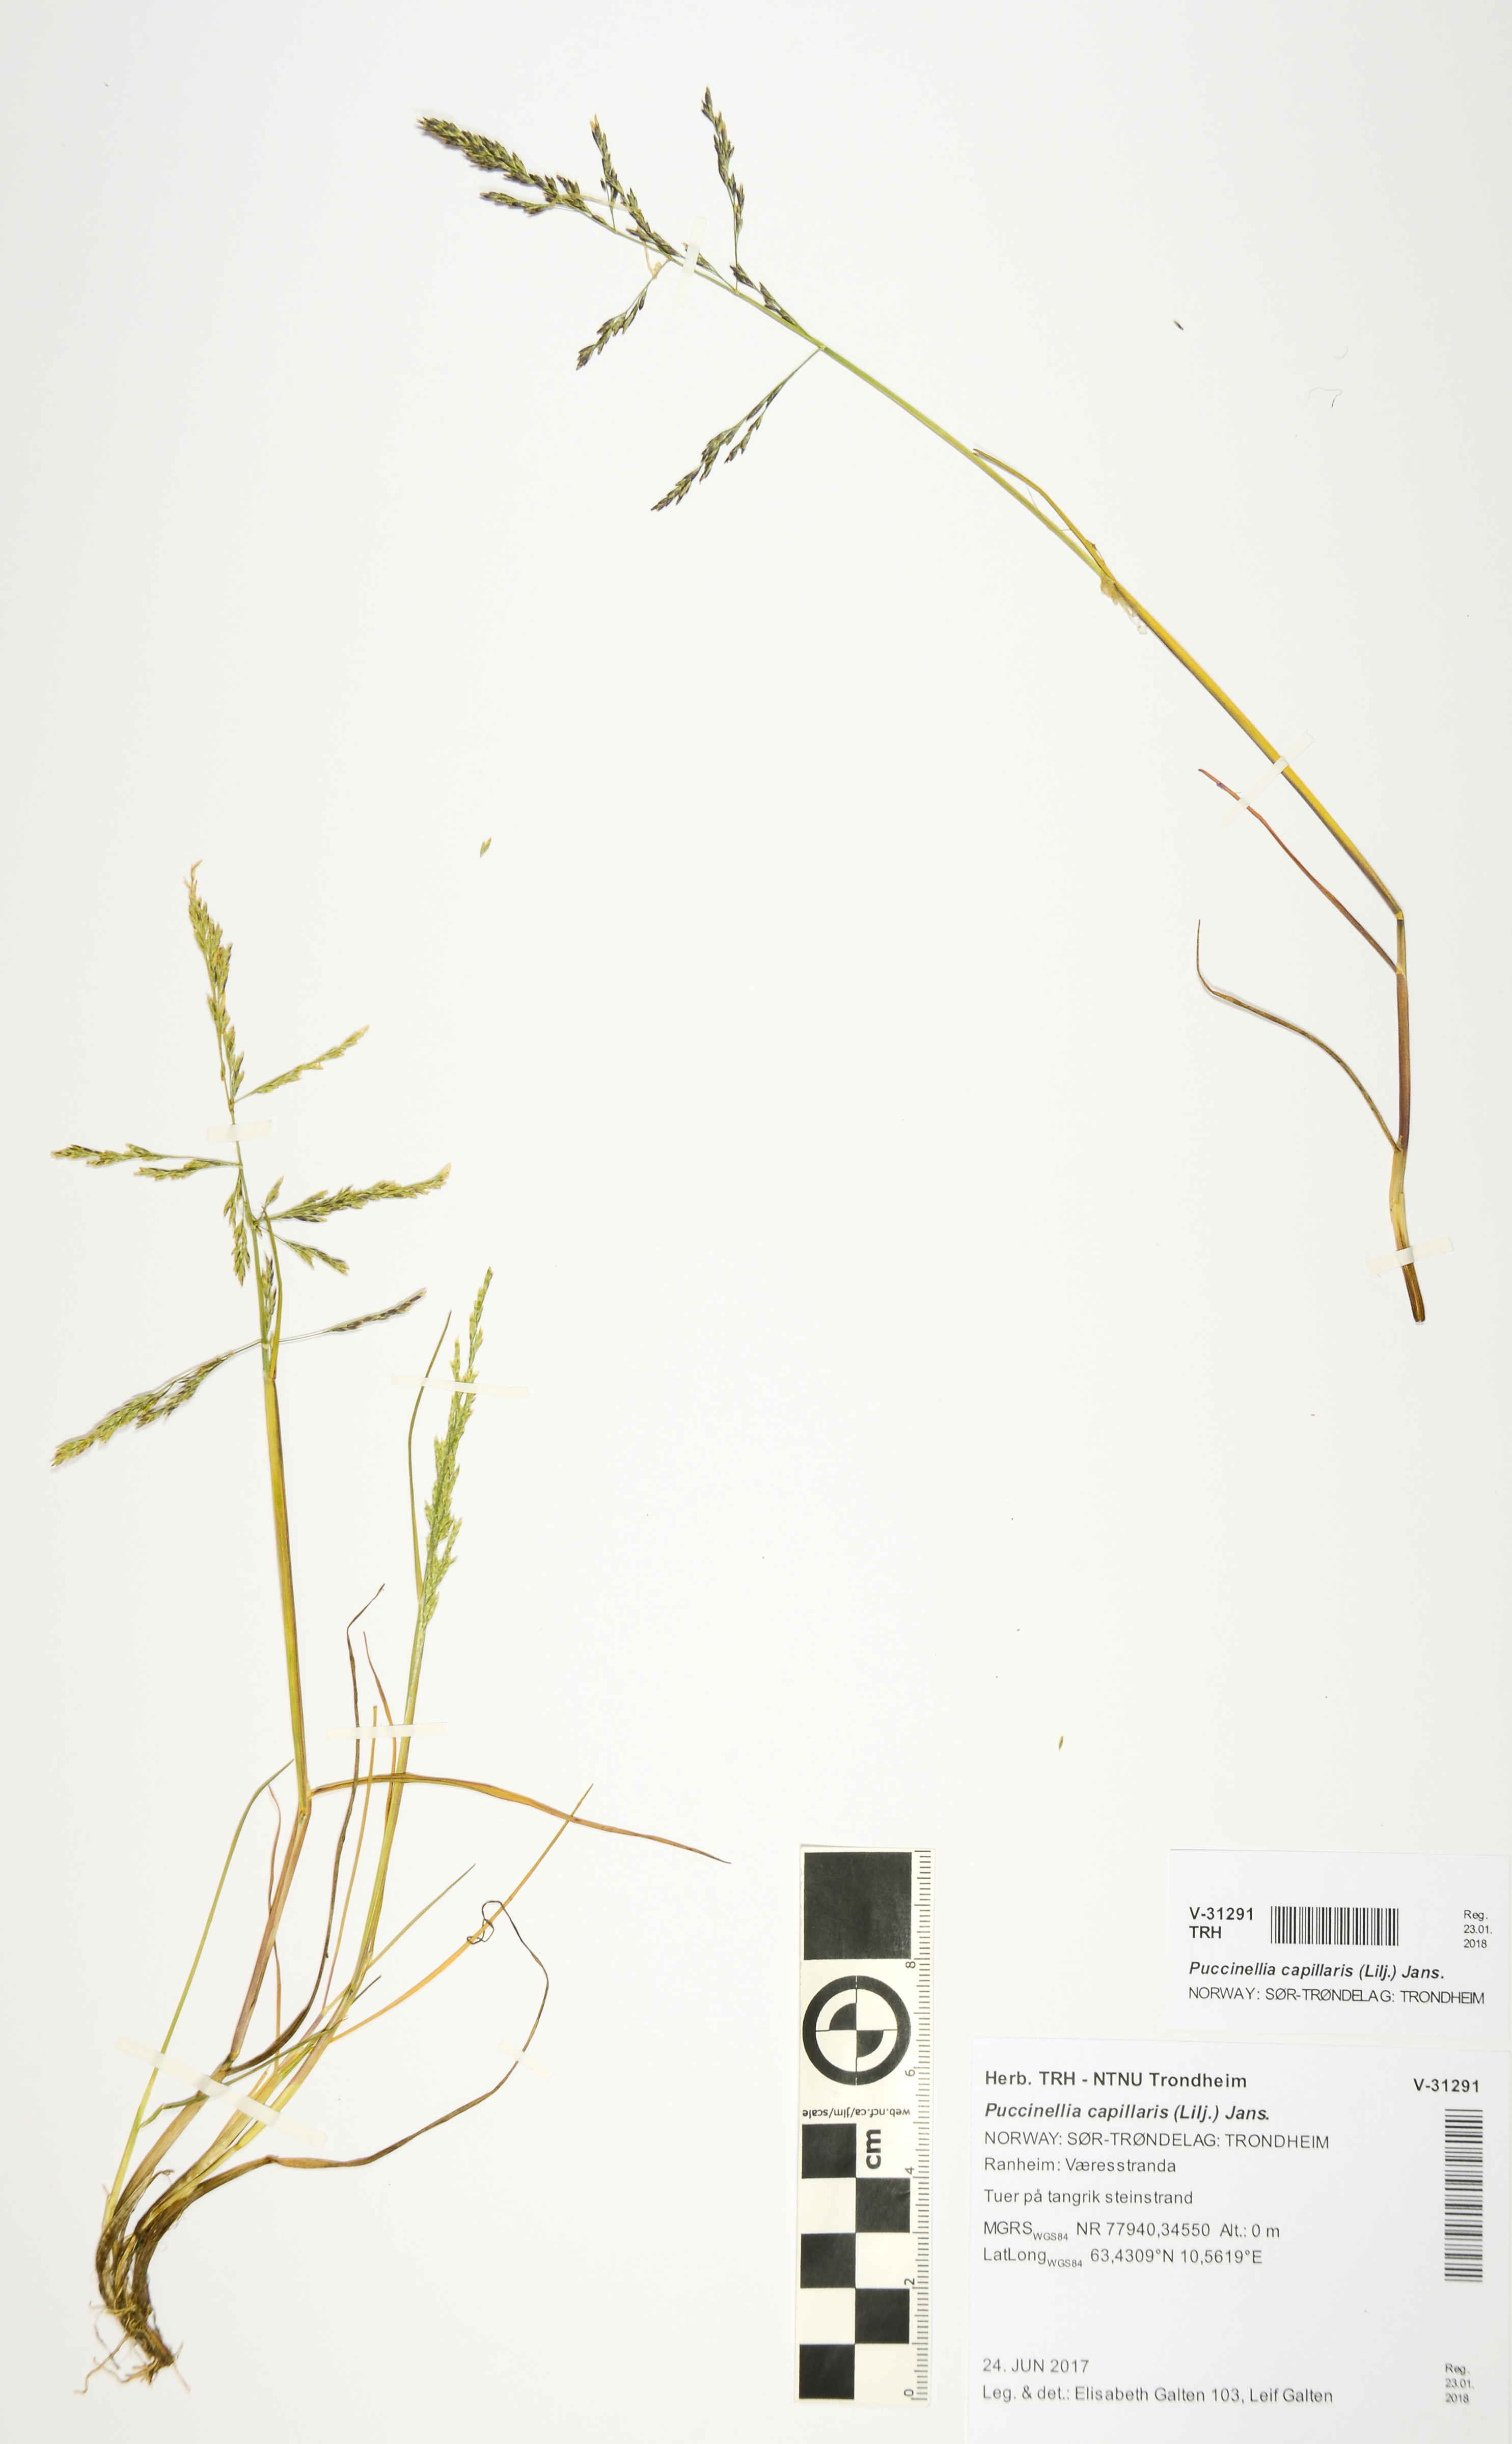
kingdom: Plantae
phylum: Tracheophyta
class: Liliopsida
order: Poales
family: Poaceae
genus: Puccinellia
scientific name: Puccinellia distans
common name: Weeping alkaligrass
